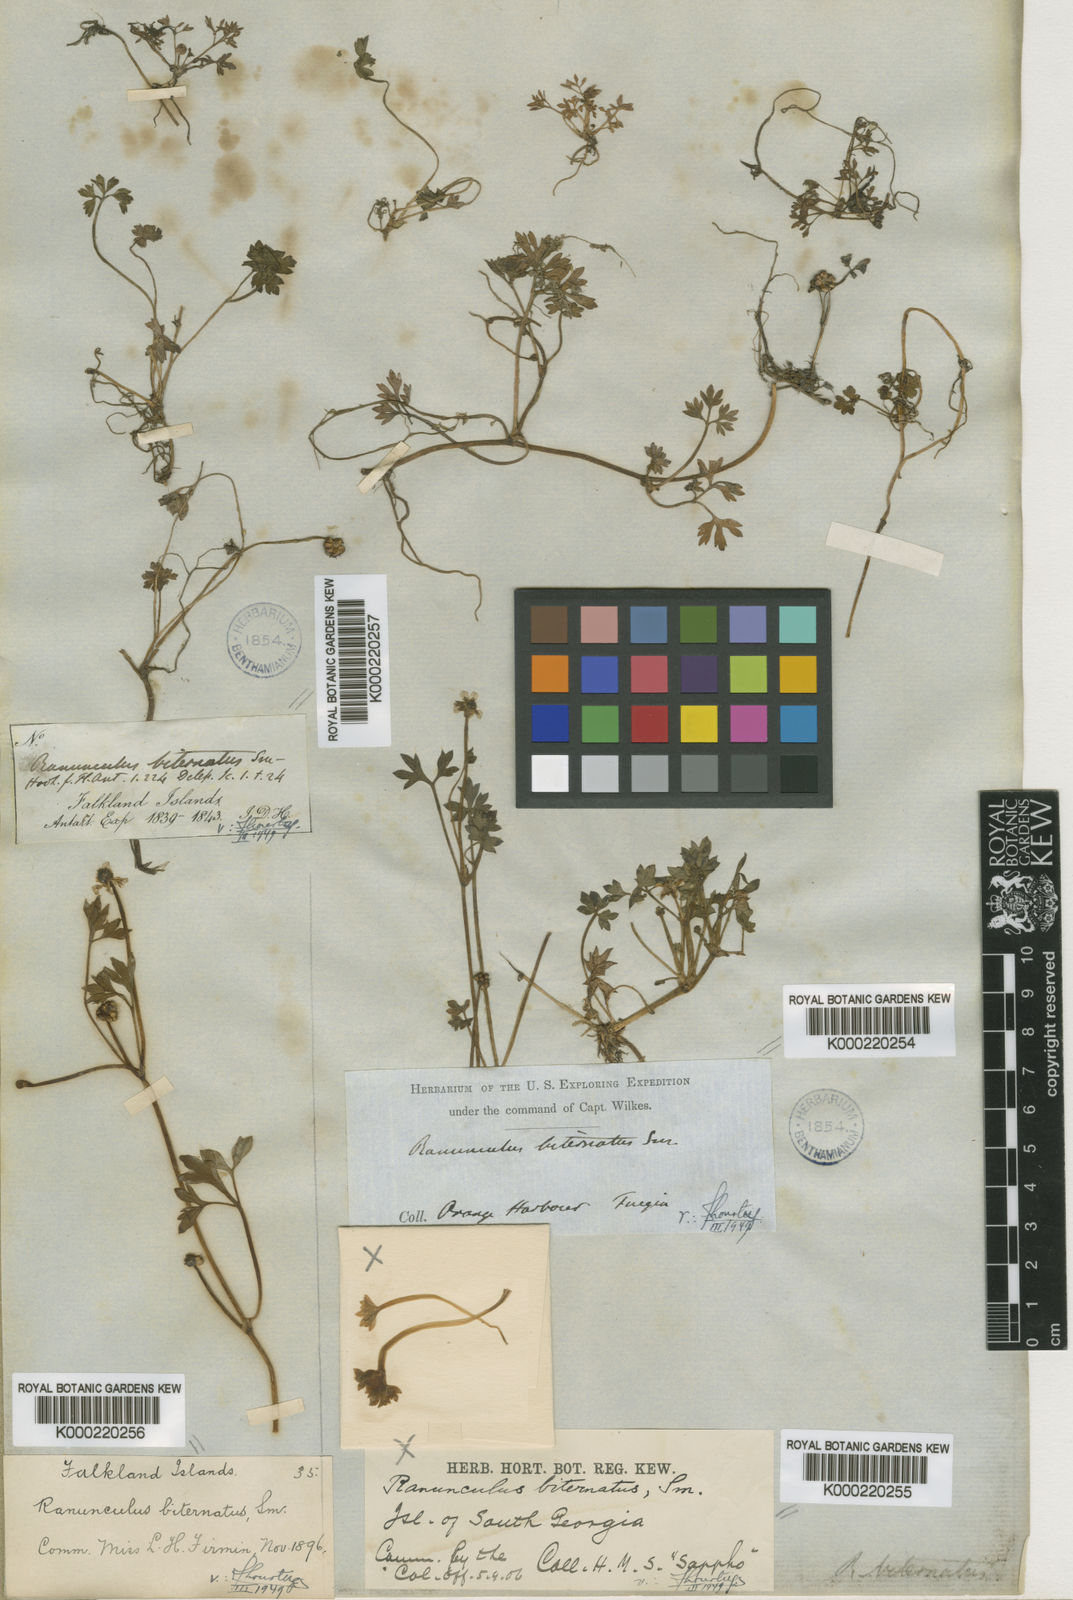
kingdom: Plantae
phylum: Tracheophyta
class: Magnoliopsida
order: Ranunculales
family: Ranunculaceae
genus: Ranunculus
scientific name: Ranunculus
